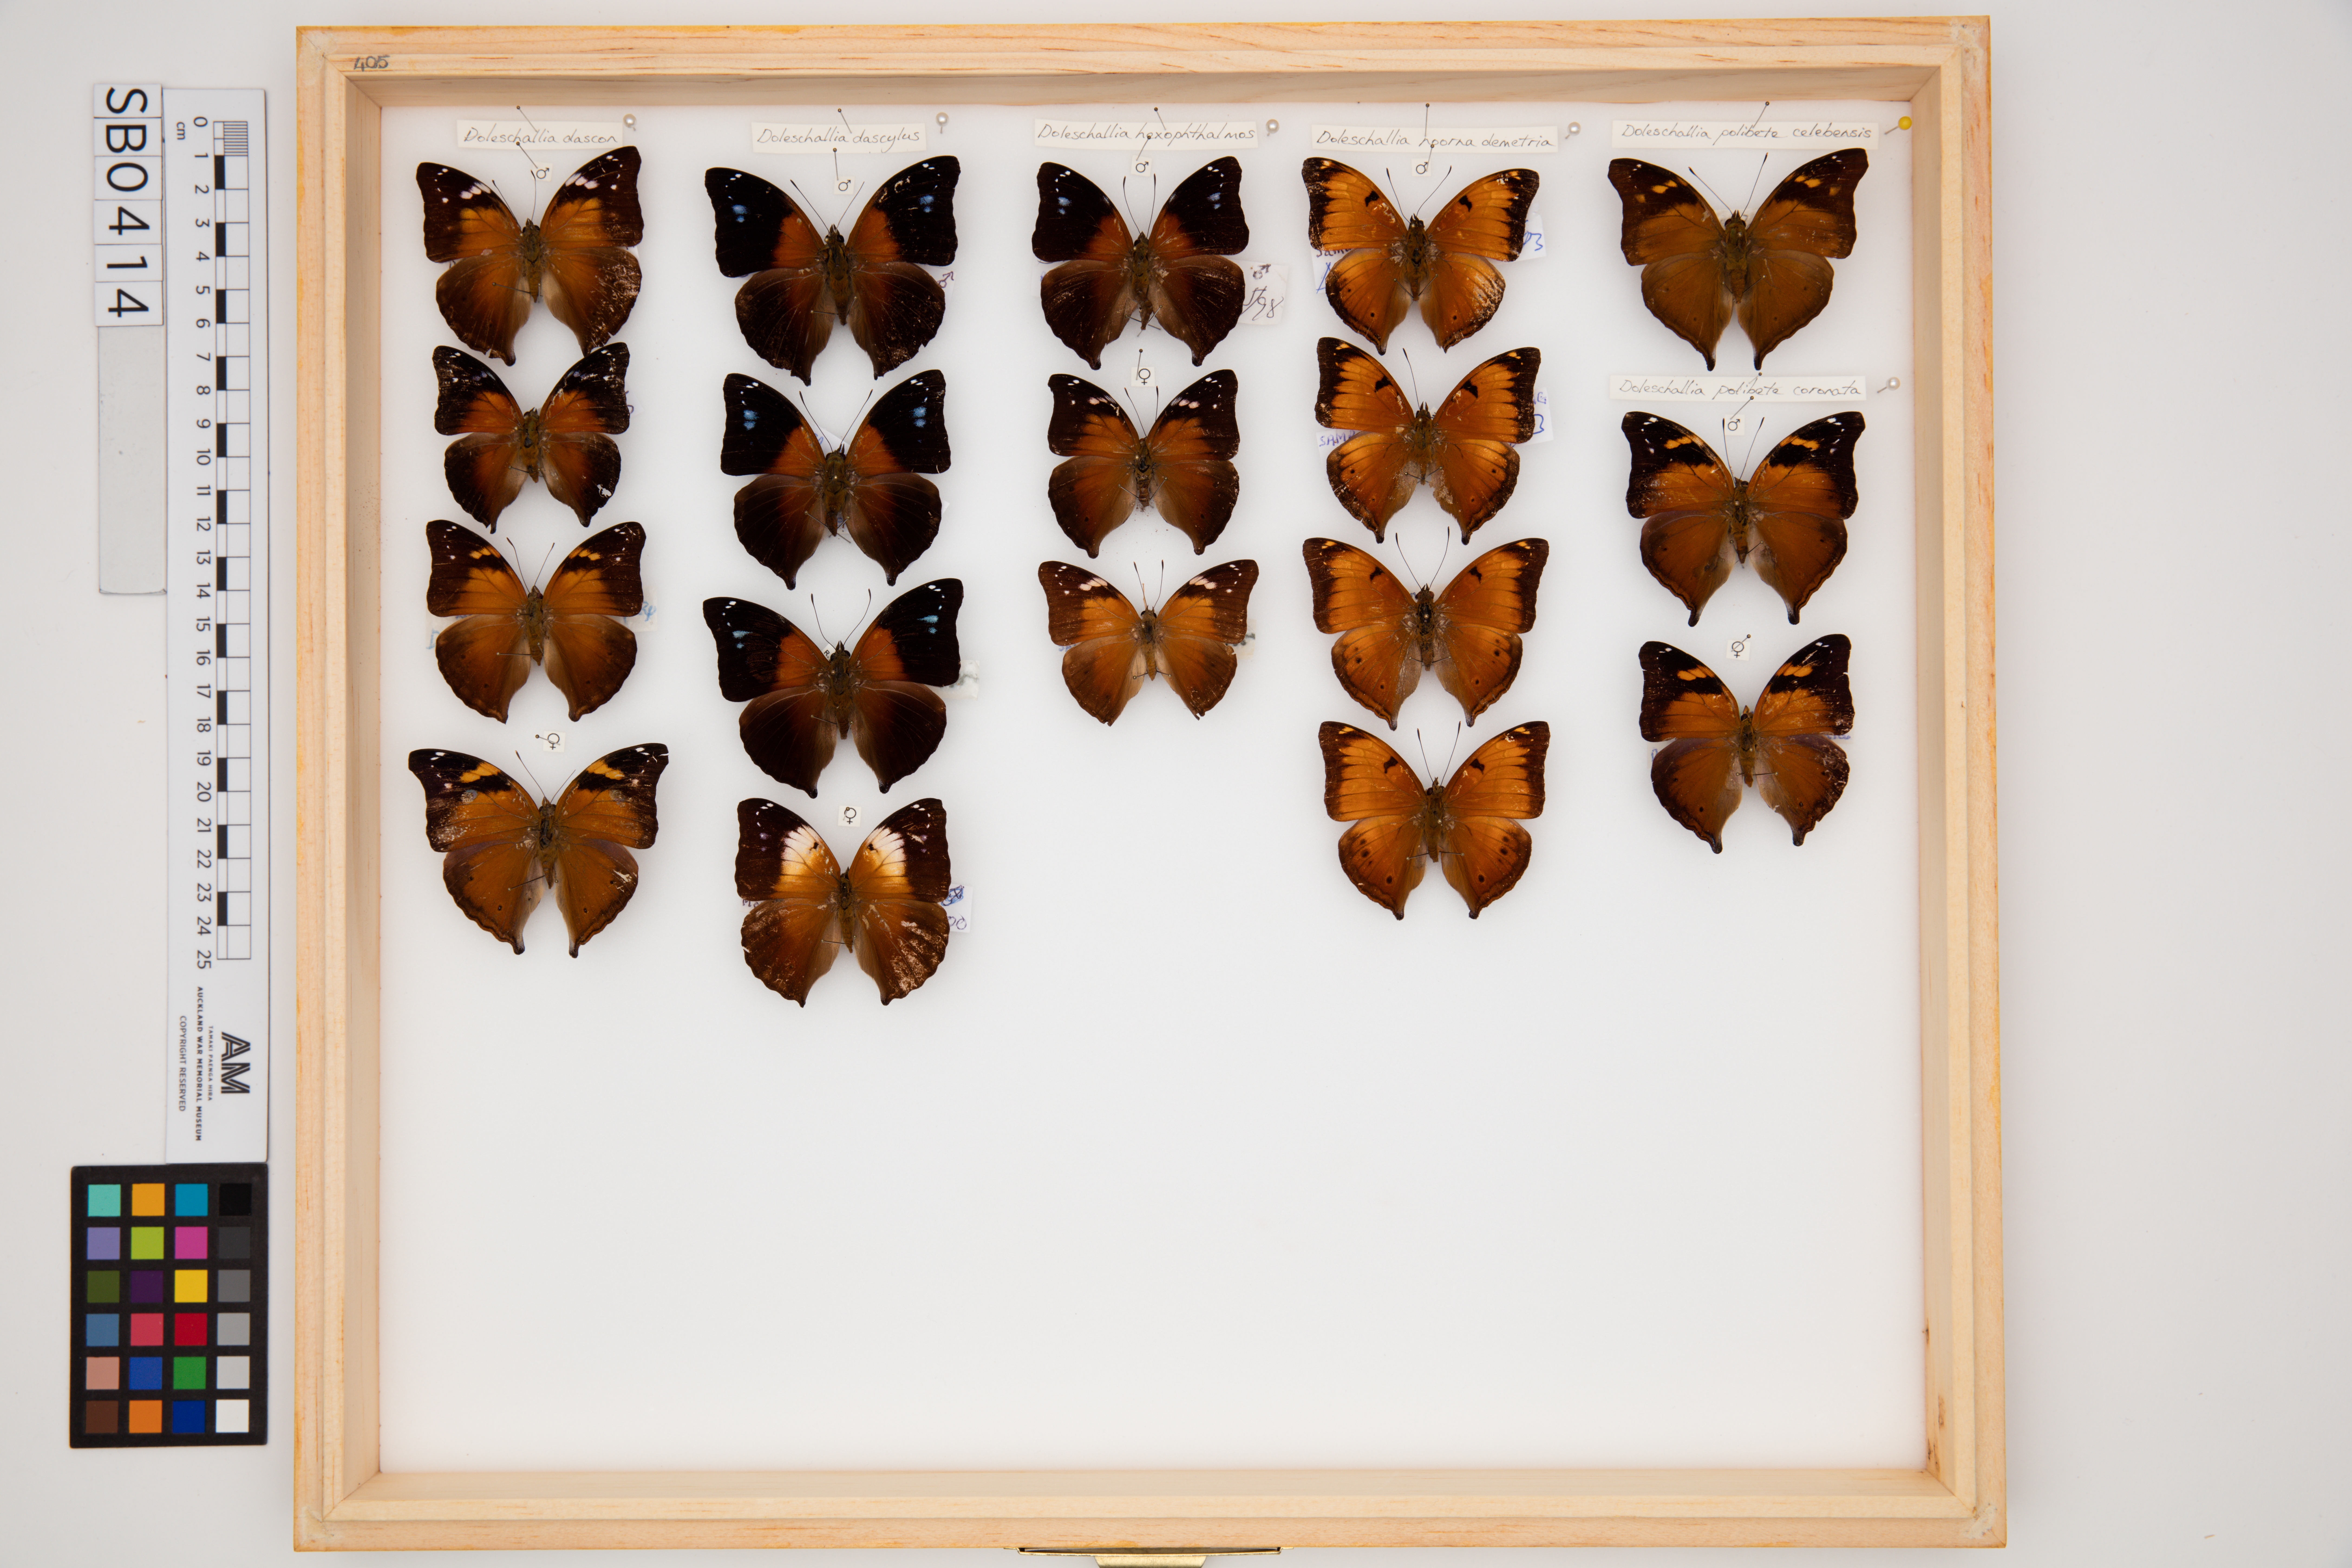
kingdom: Animalia
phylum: Arthropoda
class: Insecta
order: Lepidoptera
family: Nymphalidae
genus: Doleschallia
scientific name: Doleschallia noorua
